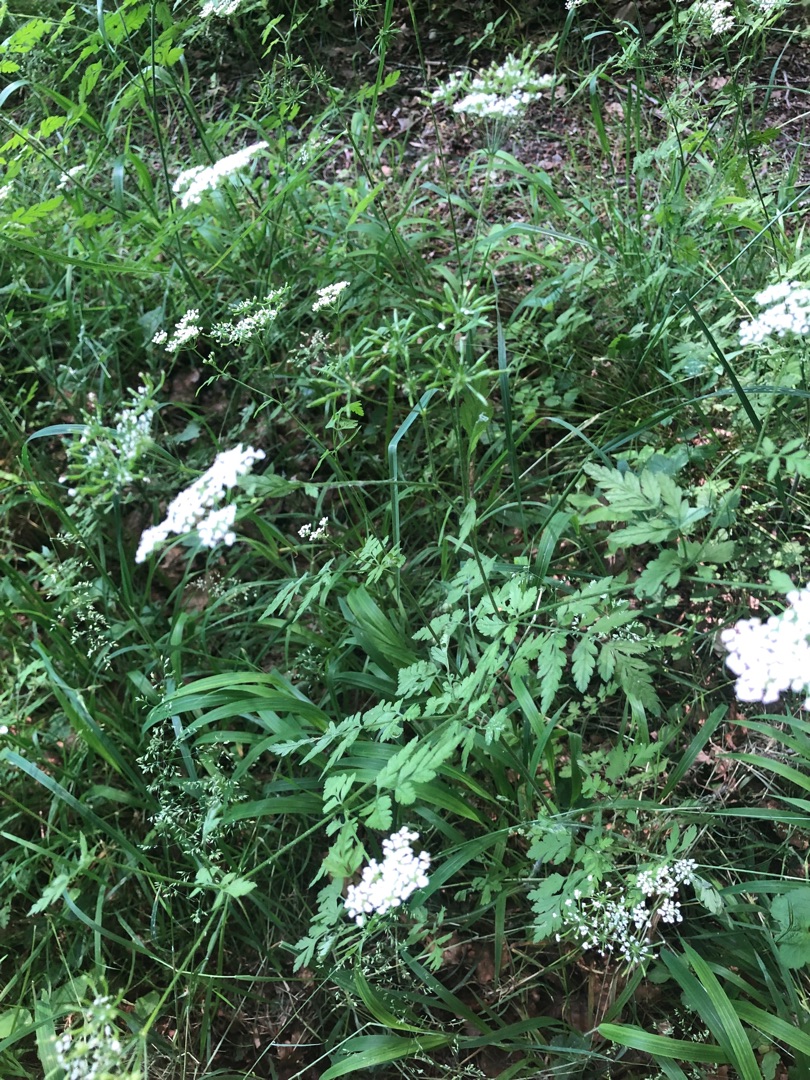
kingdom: Plantae
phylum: Tracheophyta
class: Magnoliopsida
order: Apiales
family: Apiaceae
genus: Chaerophyllum
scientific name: Chaerophyllum temulum
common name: Almindelig hulsvøb
